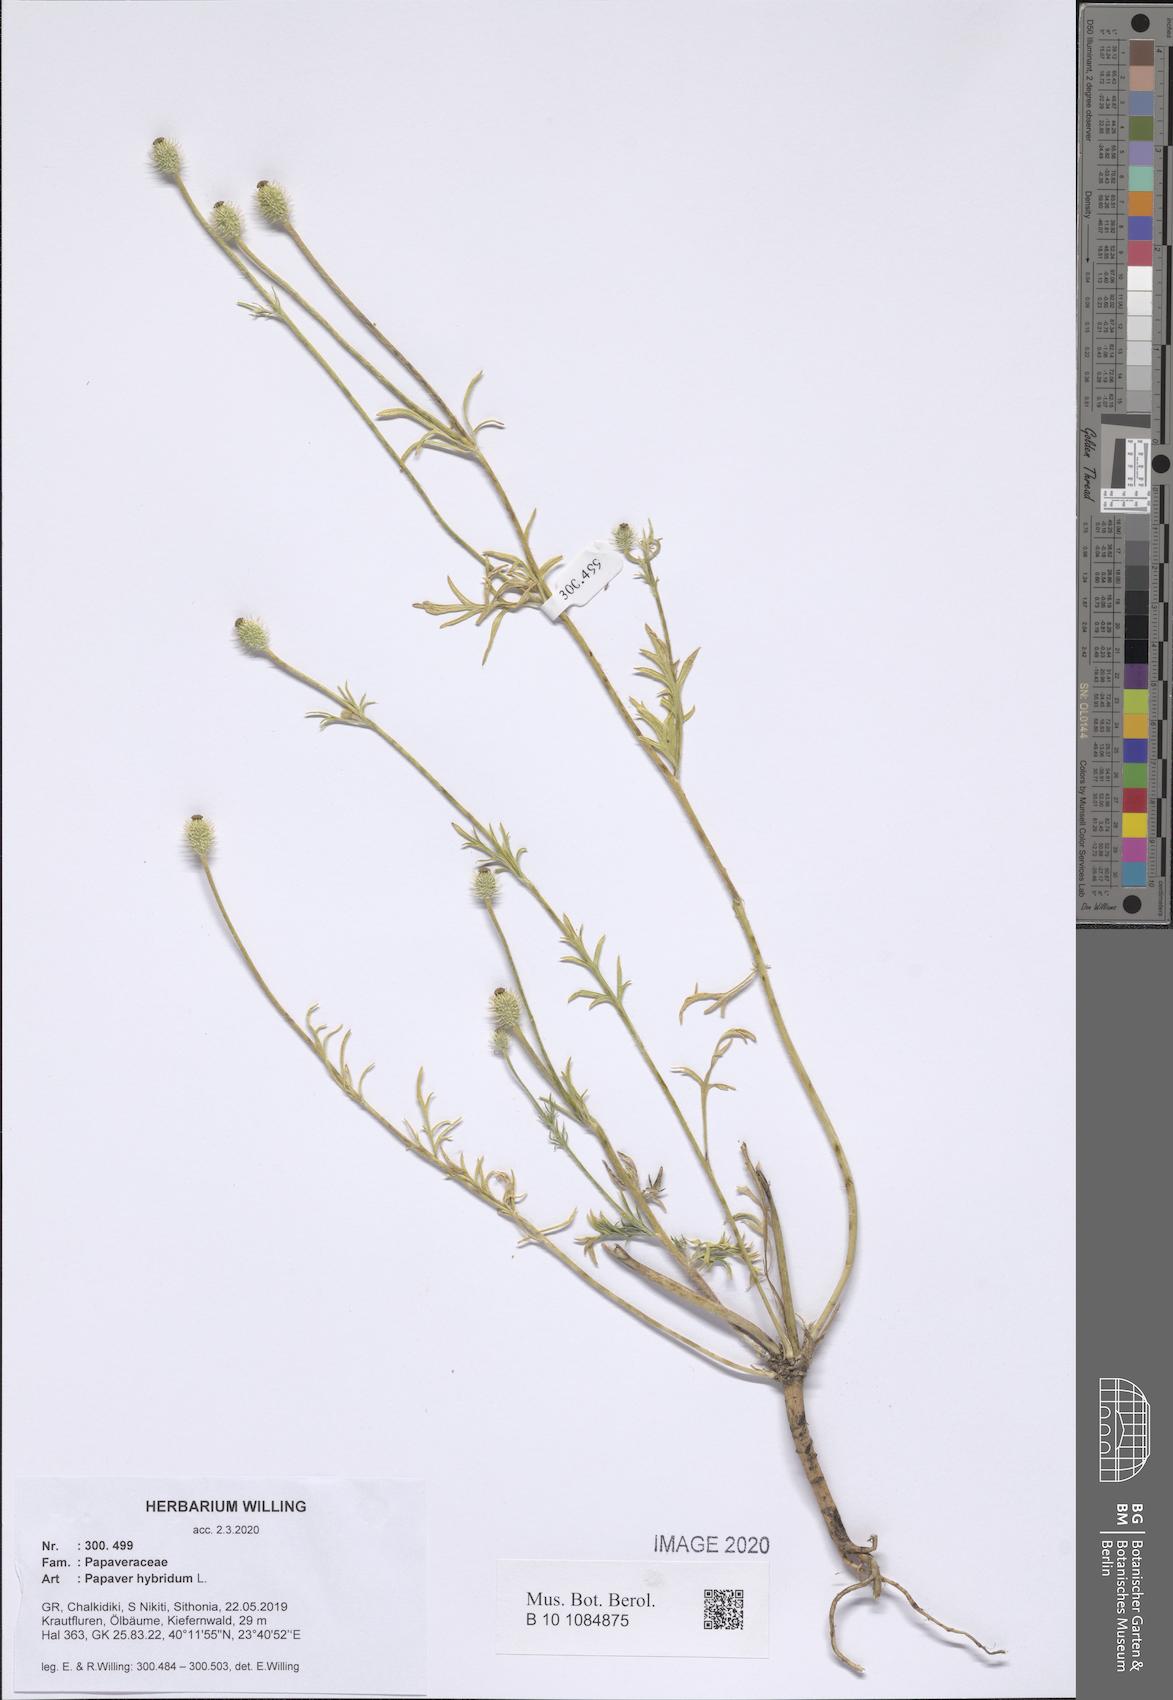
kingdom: Plantae
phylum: Tracheophyta
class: Magnoliopsida
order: Ranunculales
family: Papaveraceae
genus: Roemeria
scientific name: Roemeria hispida
